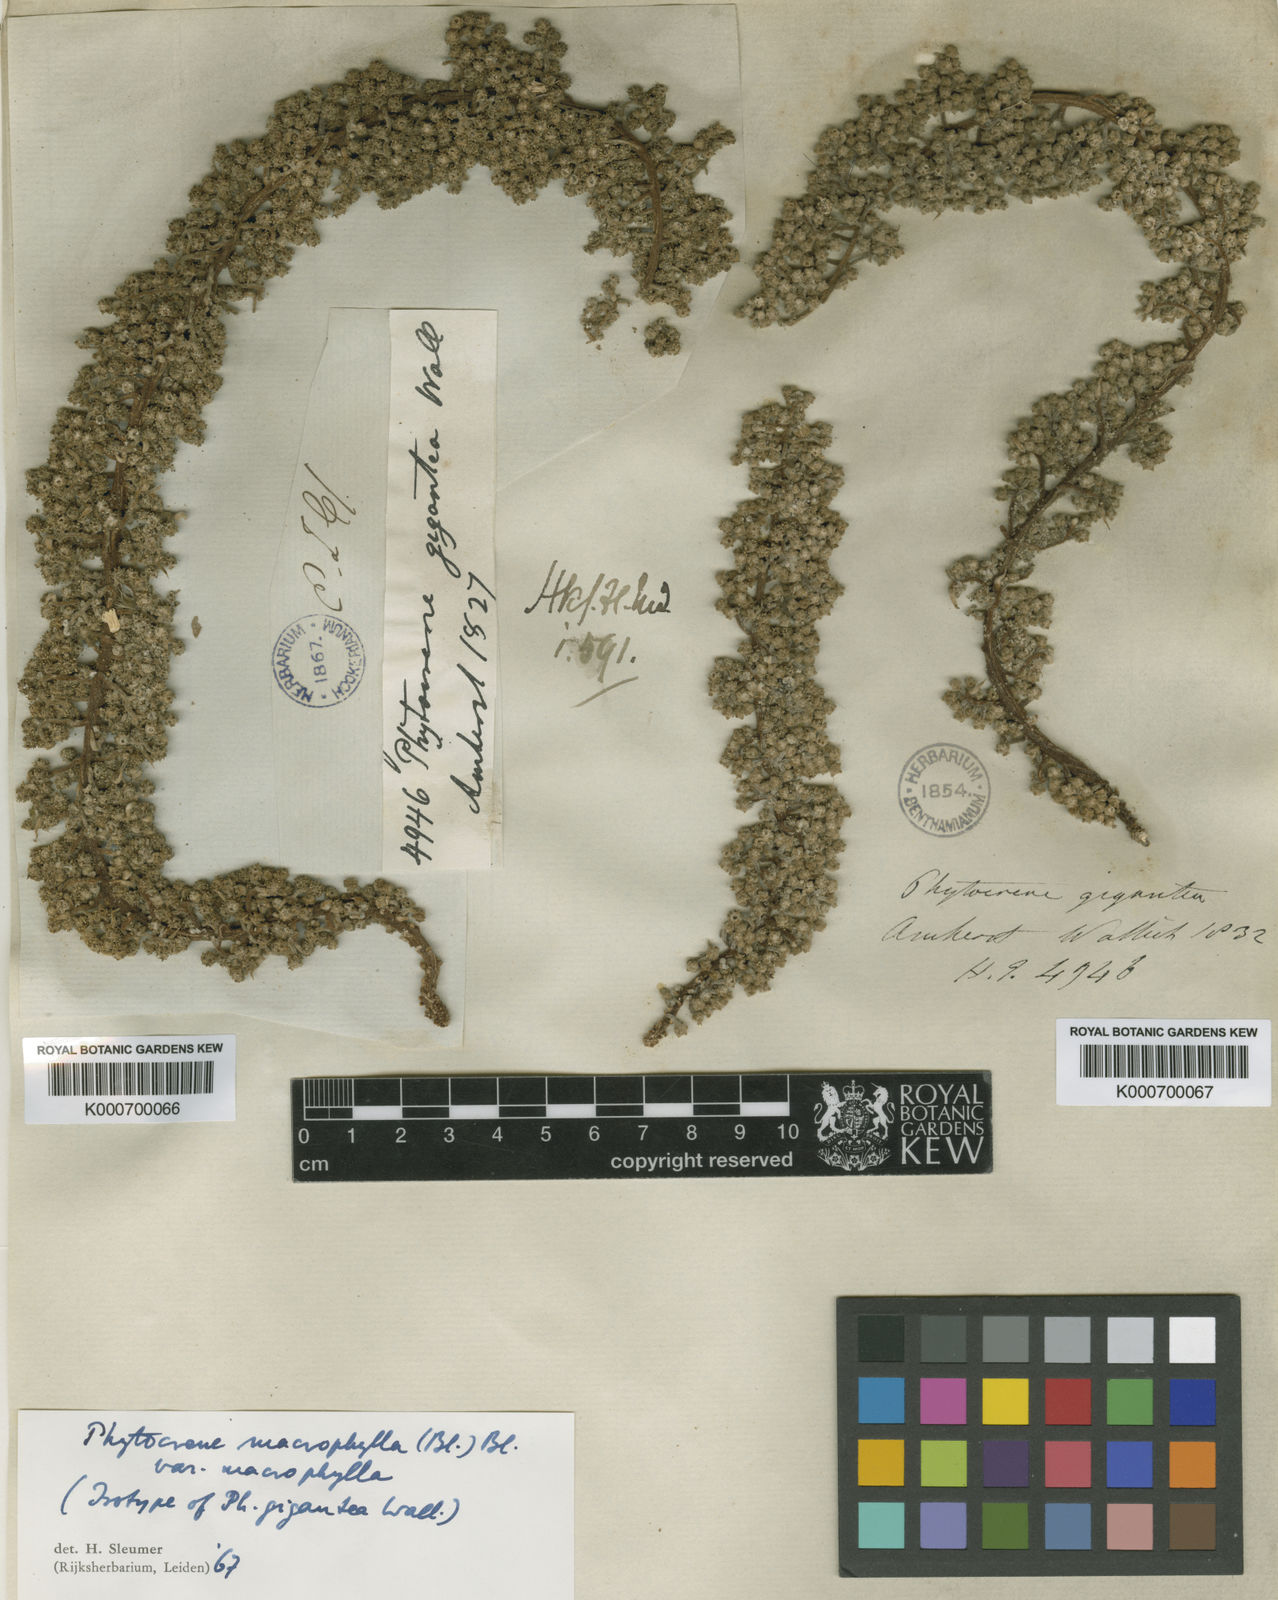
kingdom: Plantae
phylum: Tracheophyta
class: Magnoliopsida
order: Icacinales
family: Icacinaceae
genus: Phytocrene
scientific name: Phytocrene macrophylla
